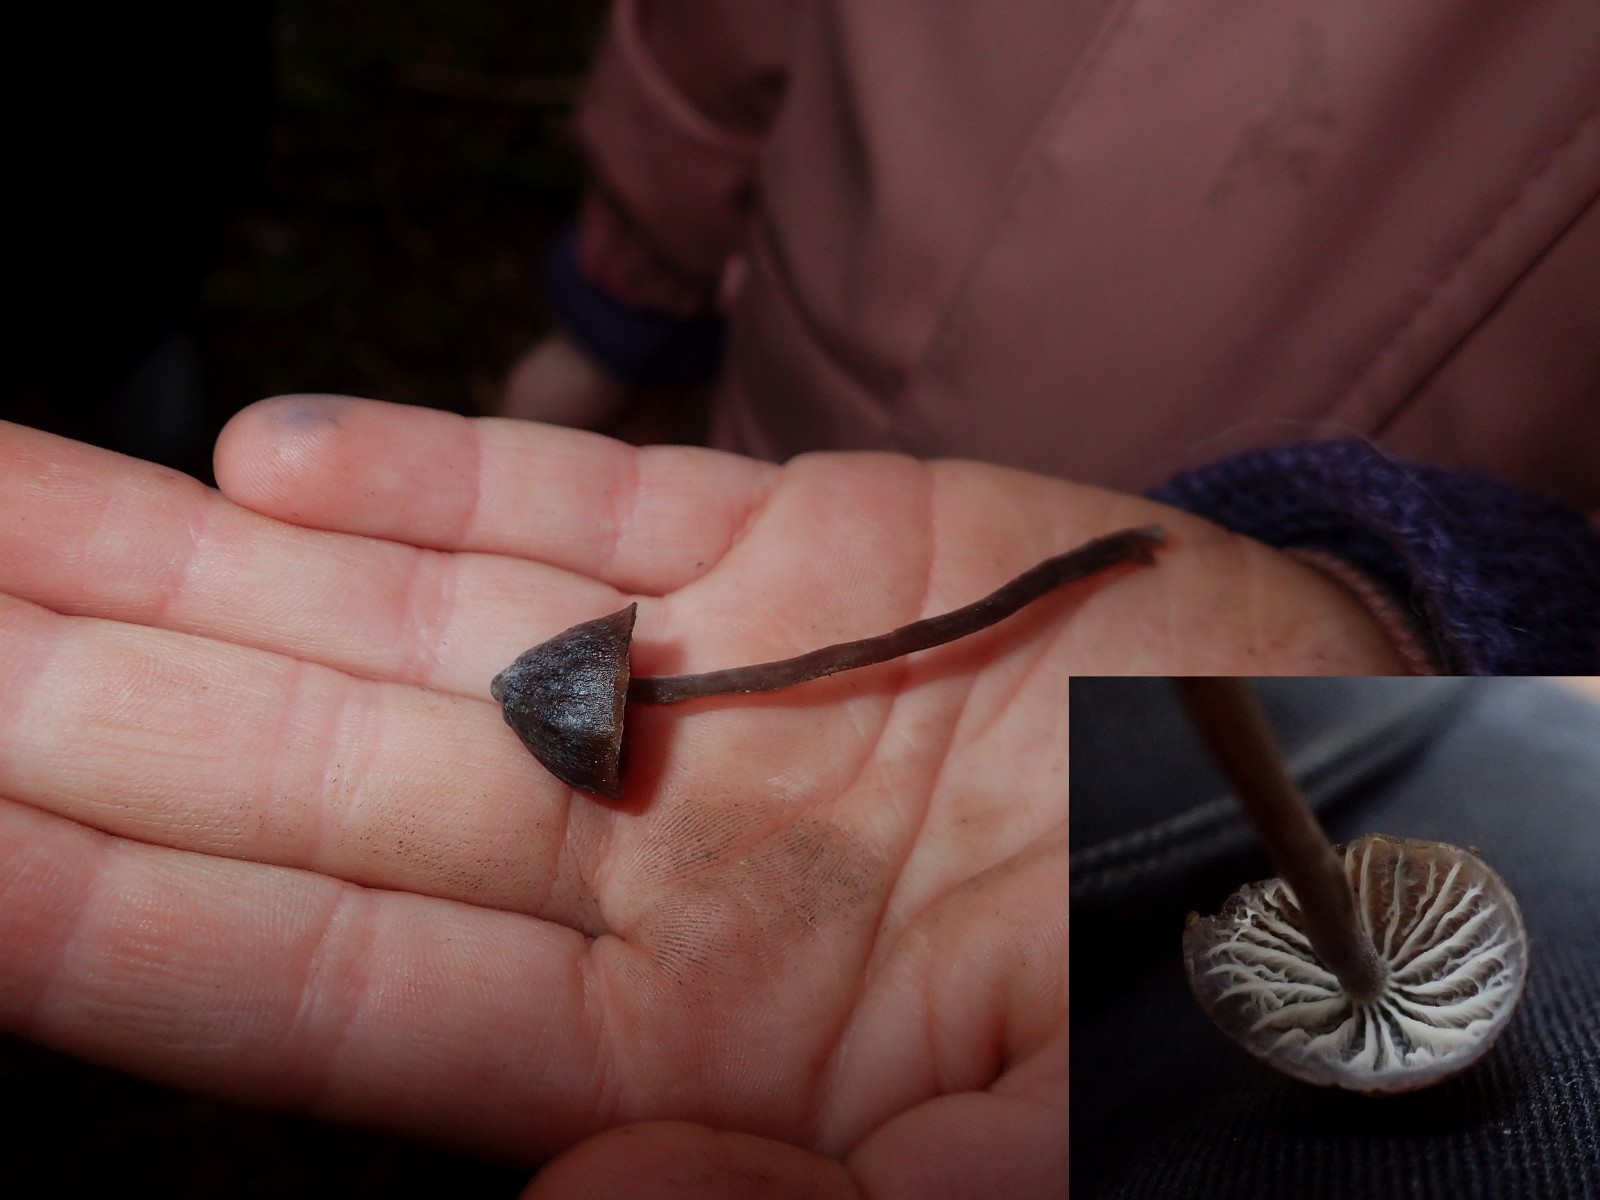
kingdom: Fungi
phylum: Basidiomycota
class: Agaricomycetes
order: Agaricales
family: Mycenaceae
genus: Mycena
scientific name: Mycena
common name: huesvamp
